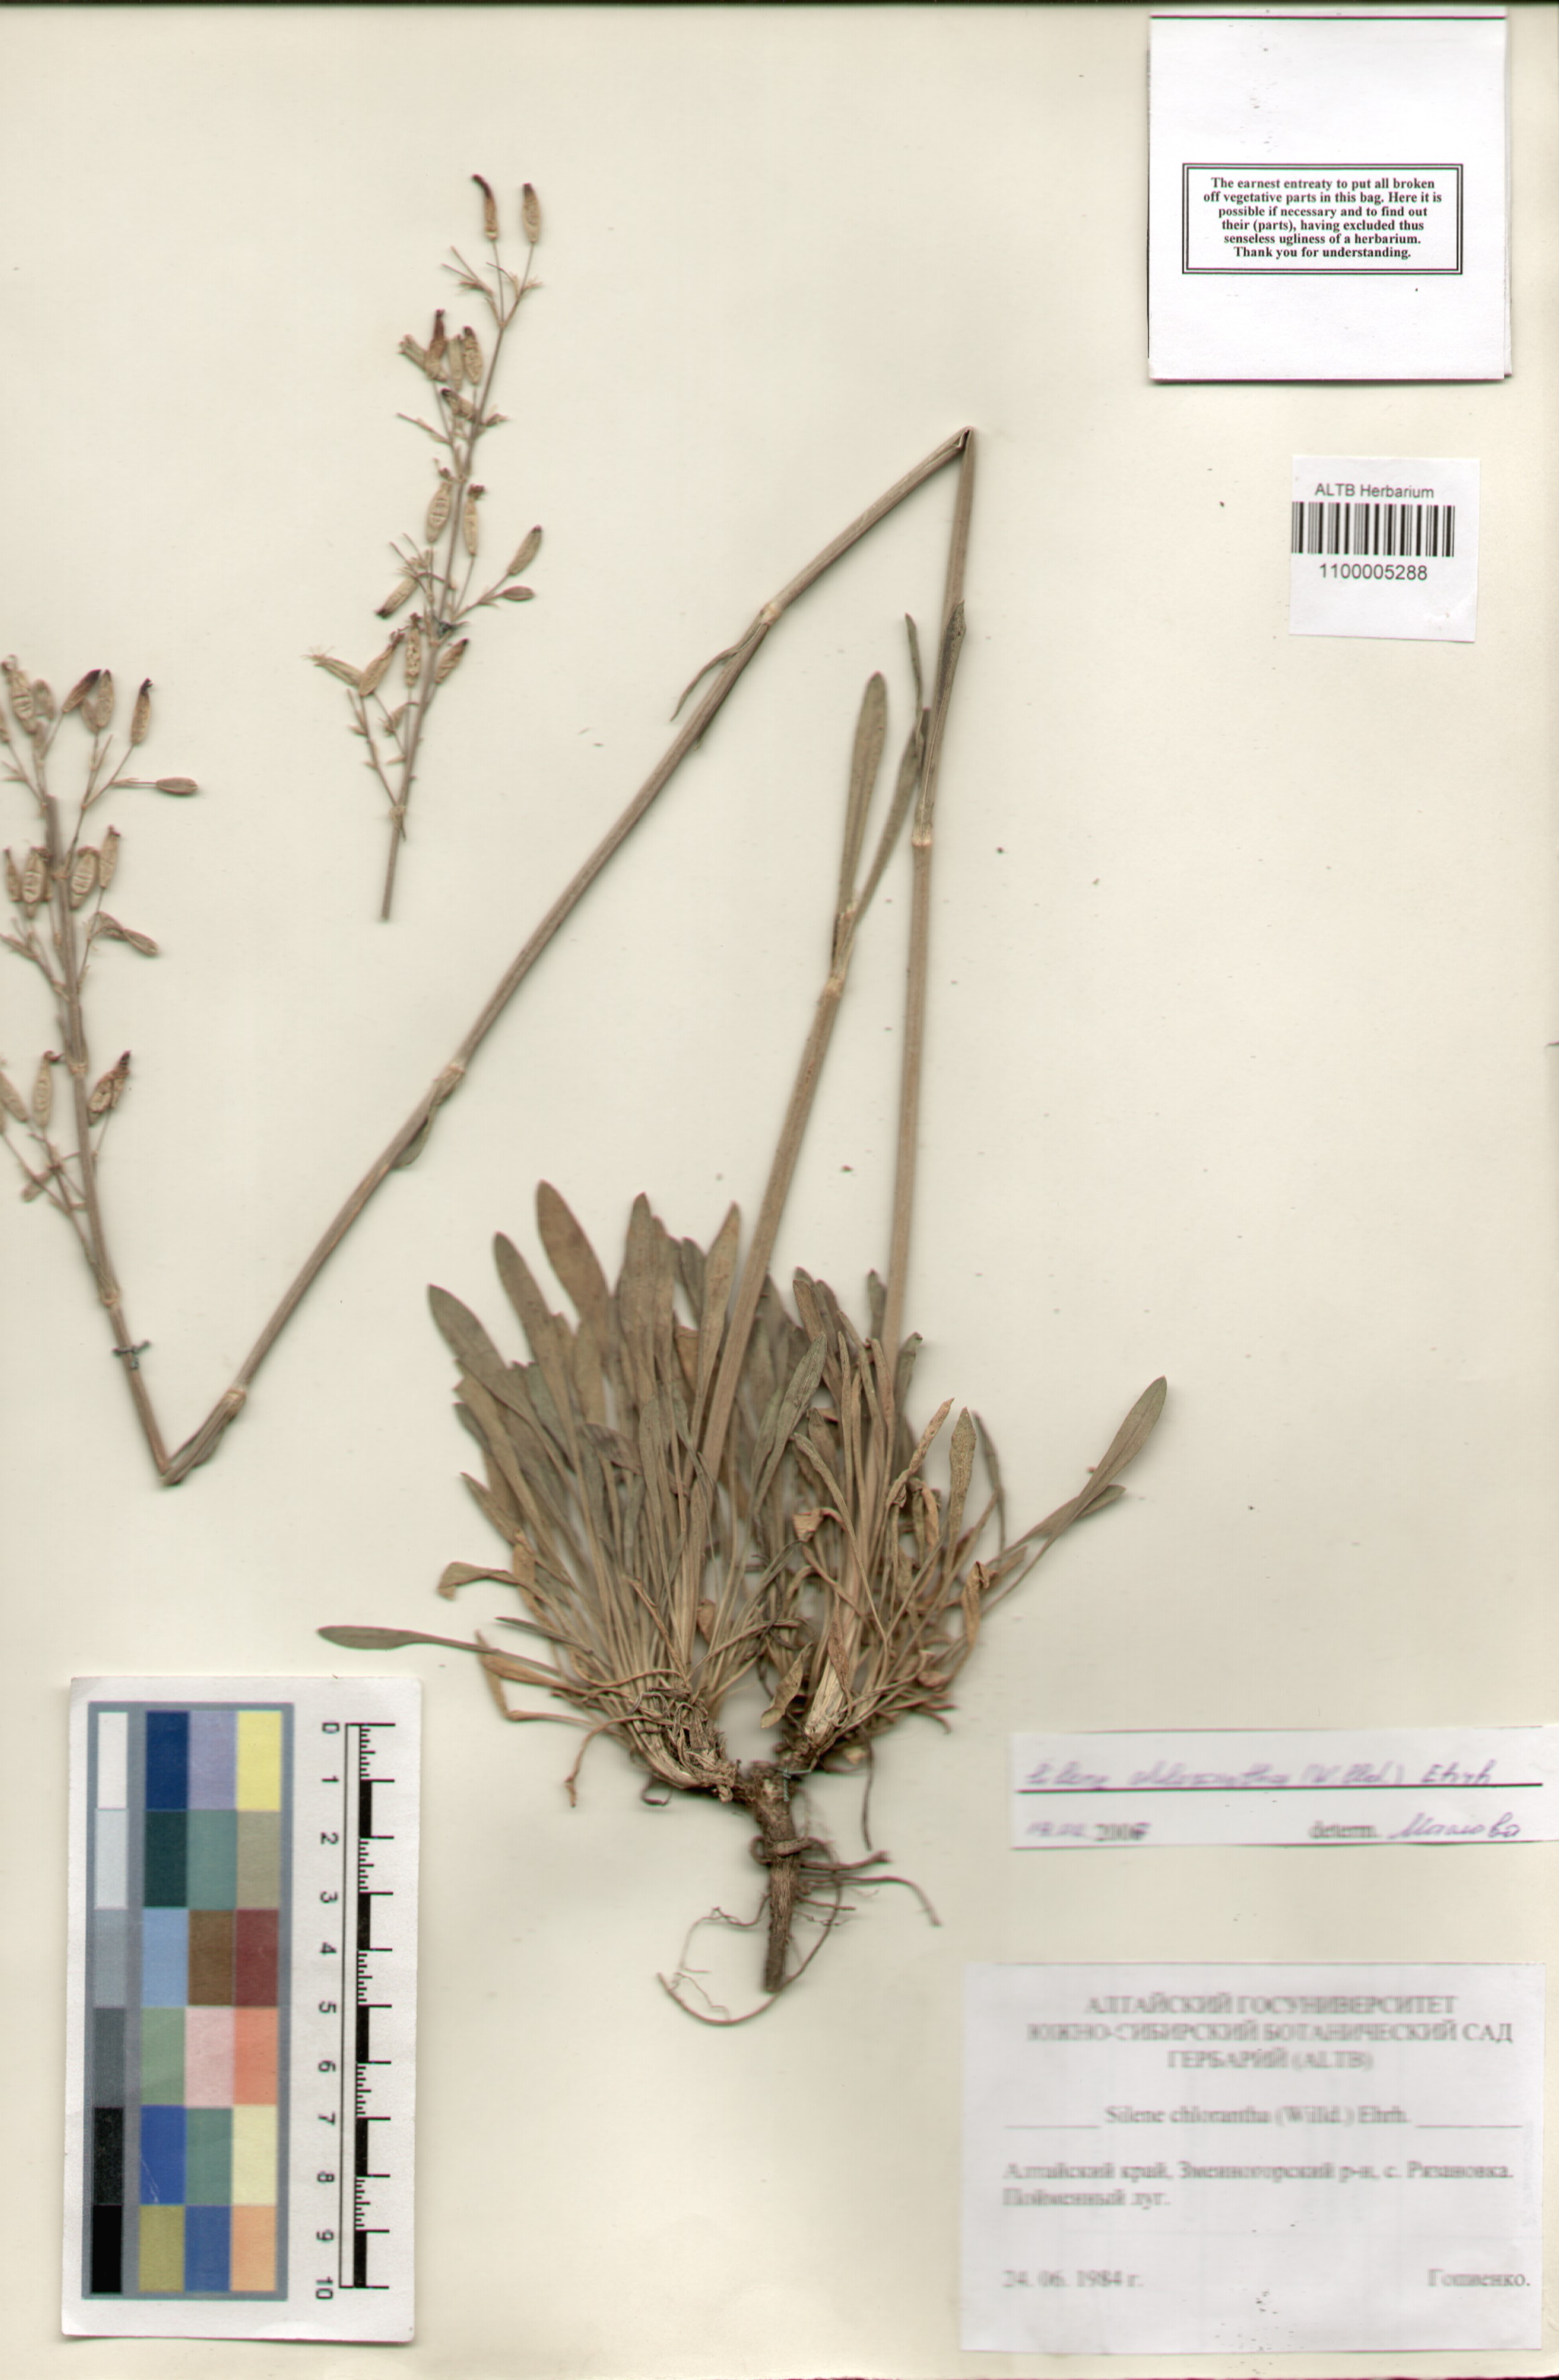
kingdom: Plantae
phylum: Tracheophyta
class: Magnoliopsida
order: Caryophyllales
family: Caryophyllaceae
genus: Silene
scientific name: Silene chlorantha
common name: Yellowgreen catchfly
